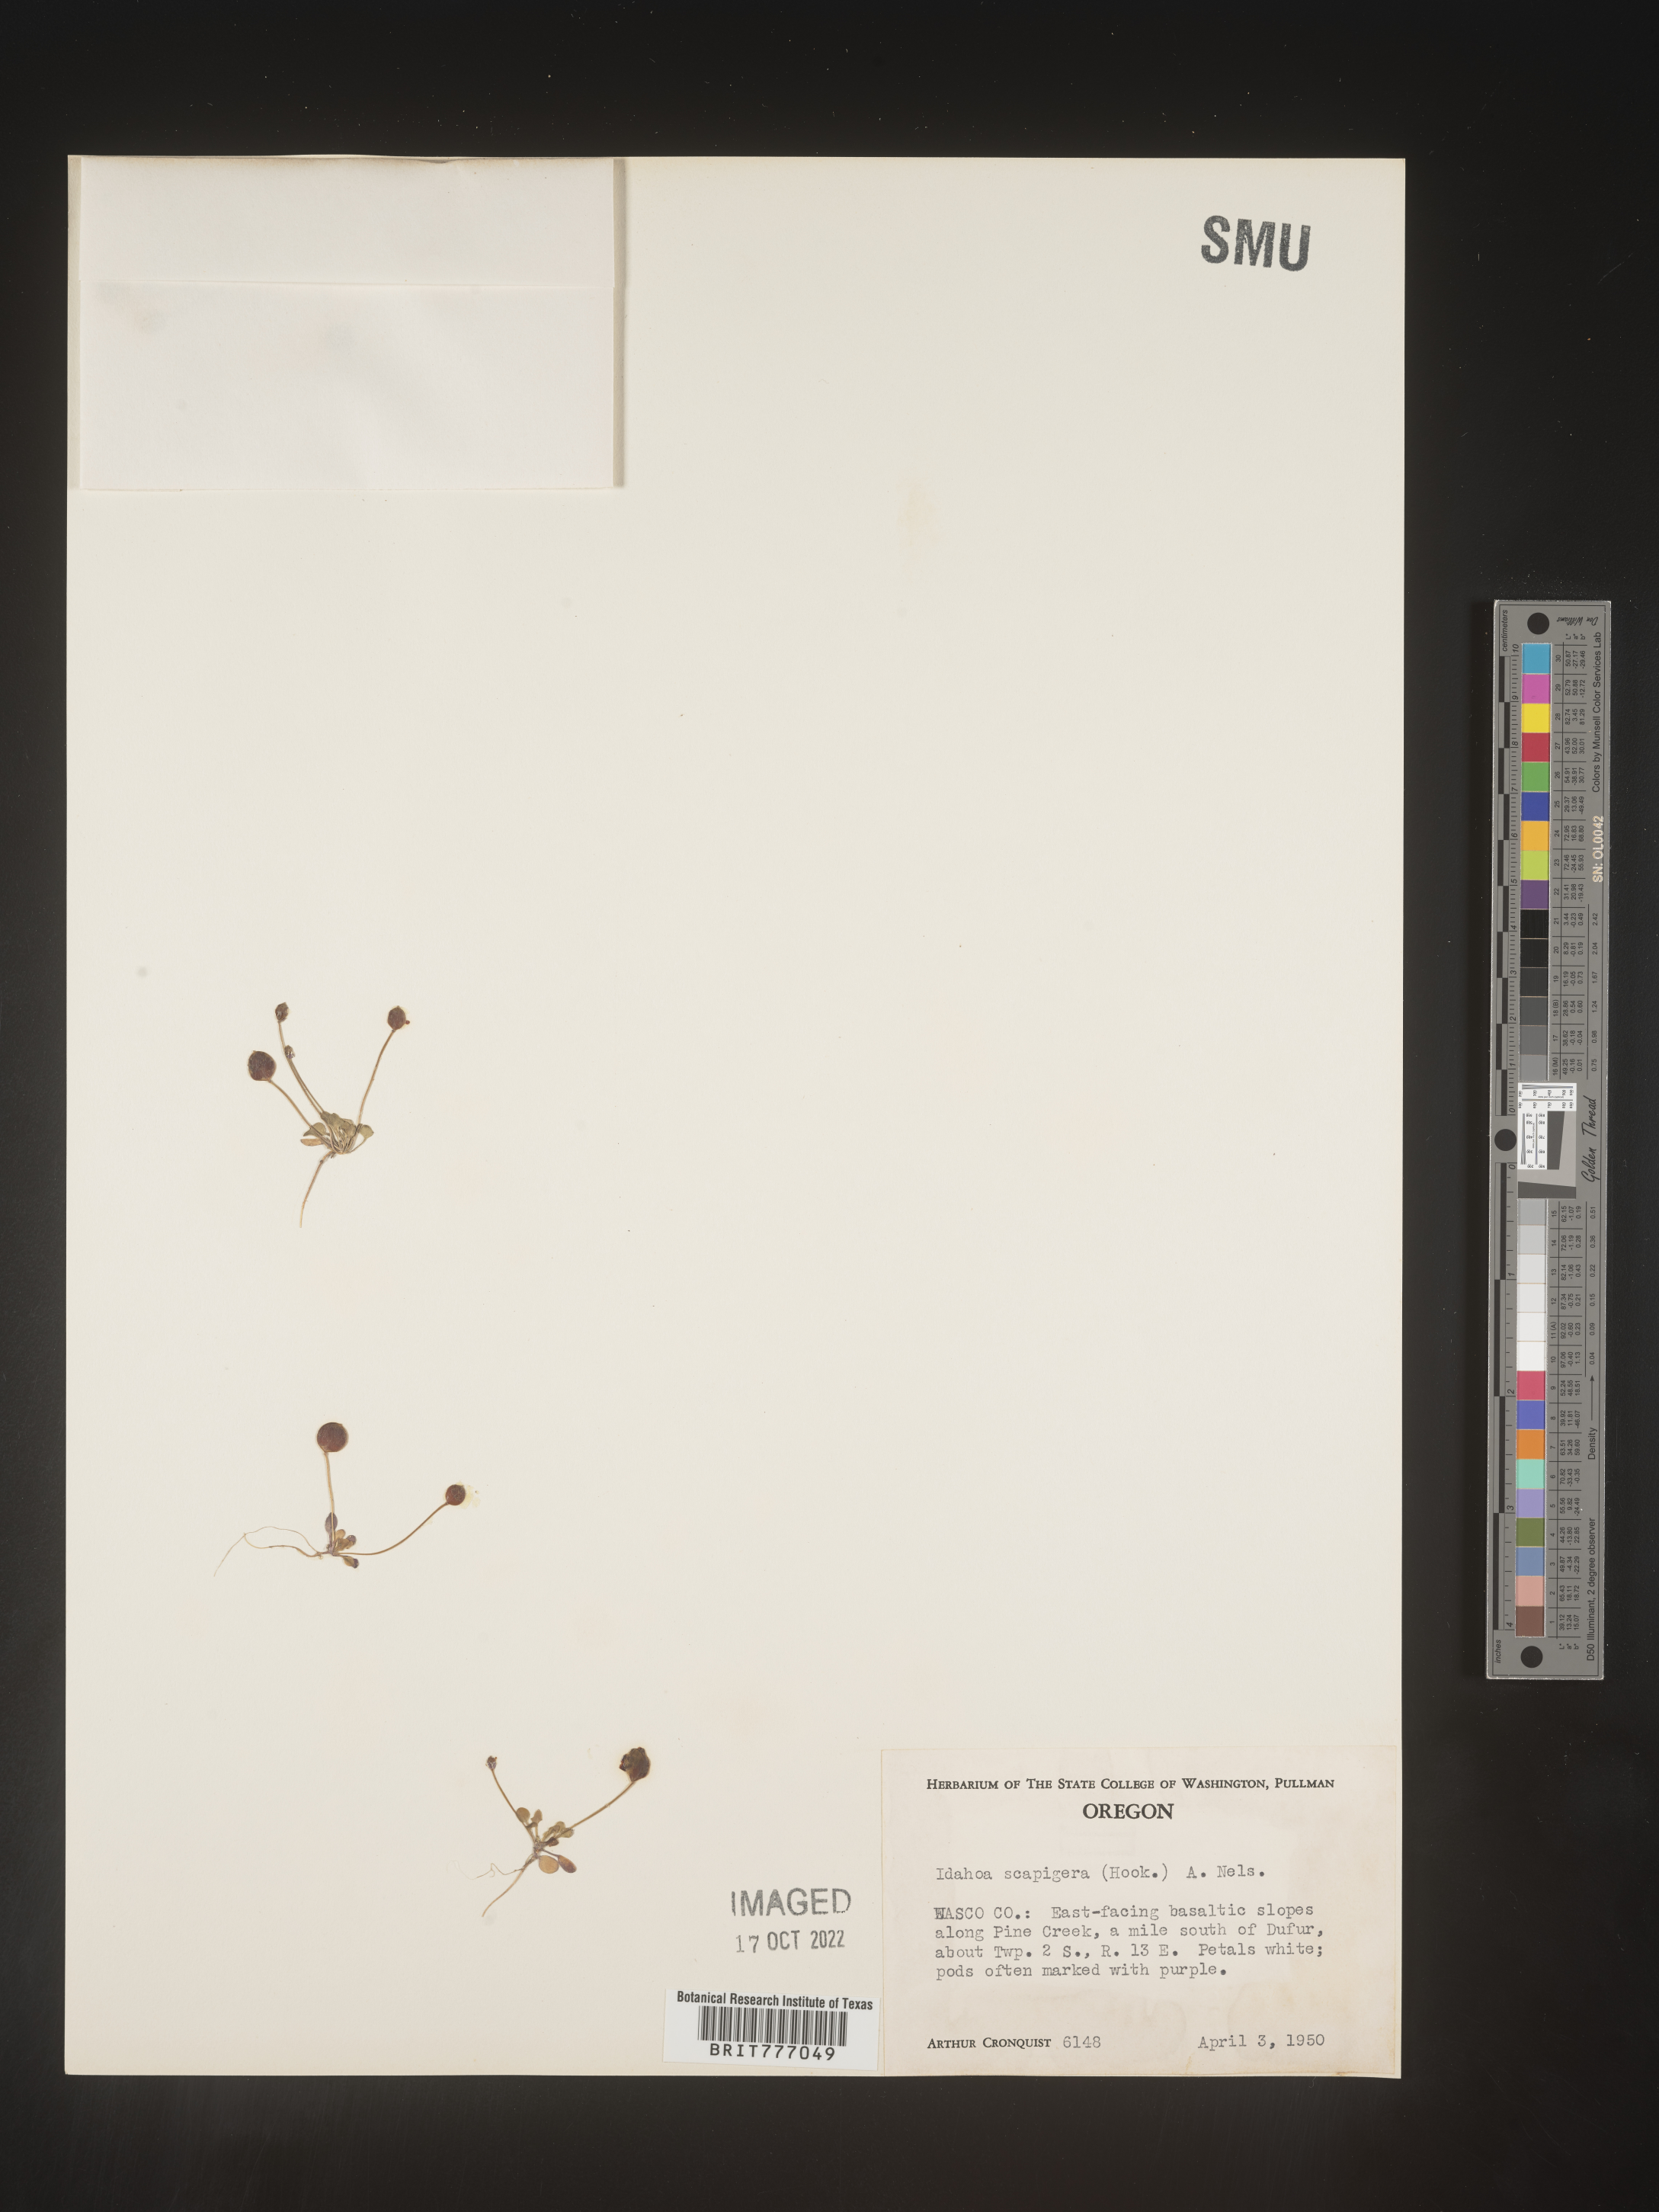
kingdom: Plantae
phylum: Tracheophyta
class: Magnoliopsida
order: Brassicales
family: Brassicaceae
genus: Idahoa
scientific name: Idahoa
